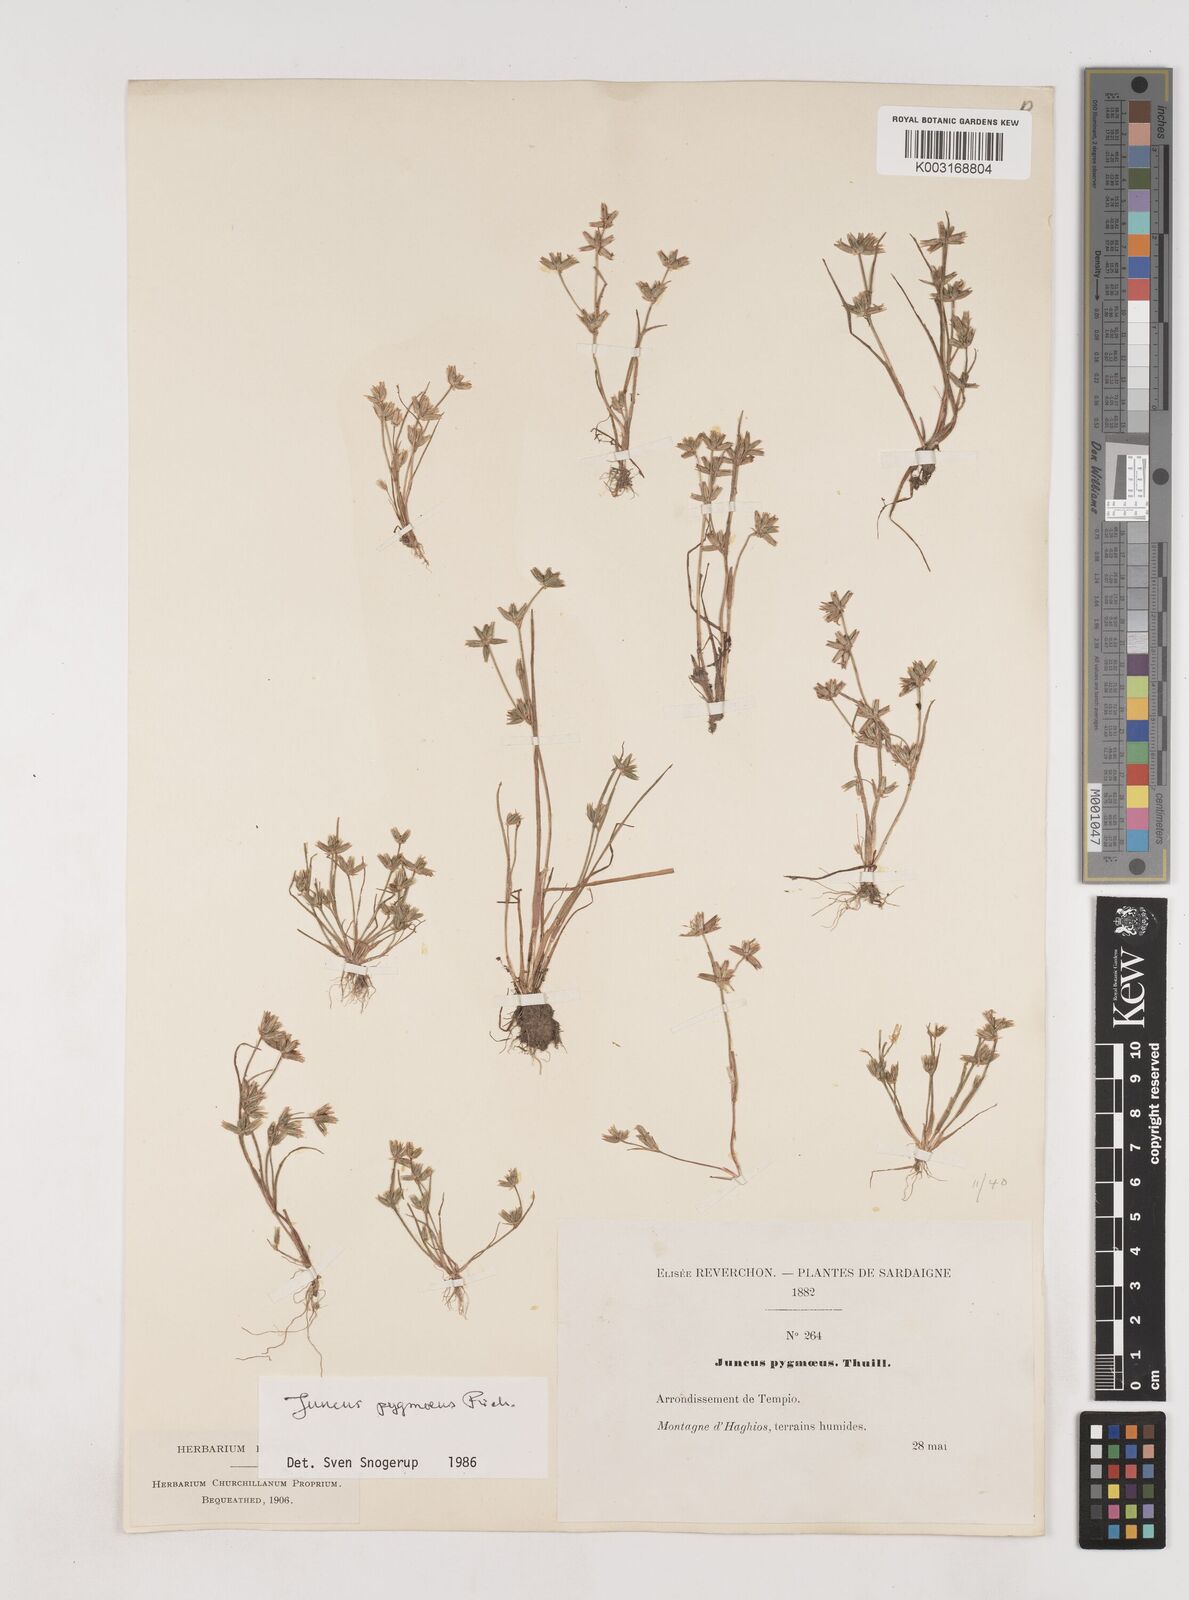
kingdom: Plantae
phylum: Tracheophyta
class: Liliopsida
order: Poales
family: Juncaceae
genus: Juncus
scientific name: Juncus pygmaeus
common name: Pigmy rush
